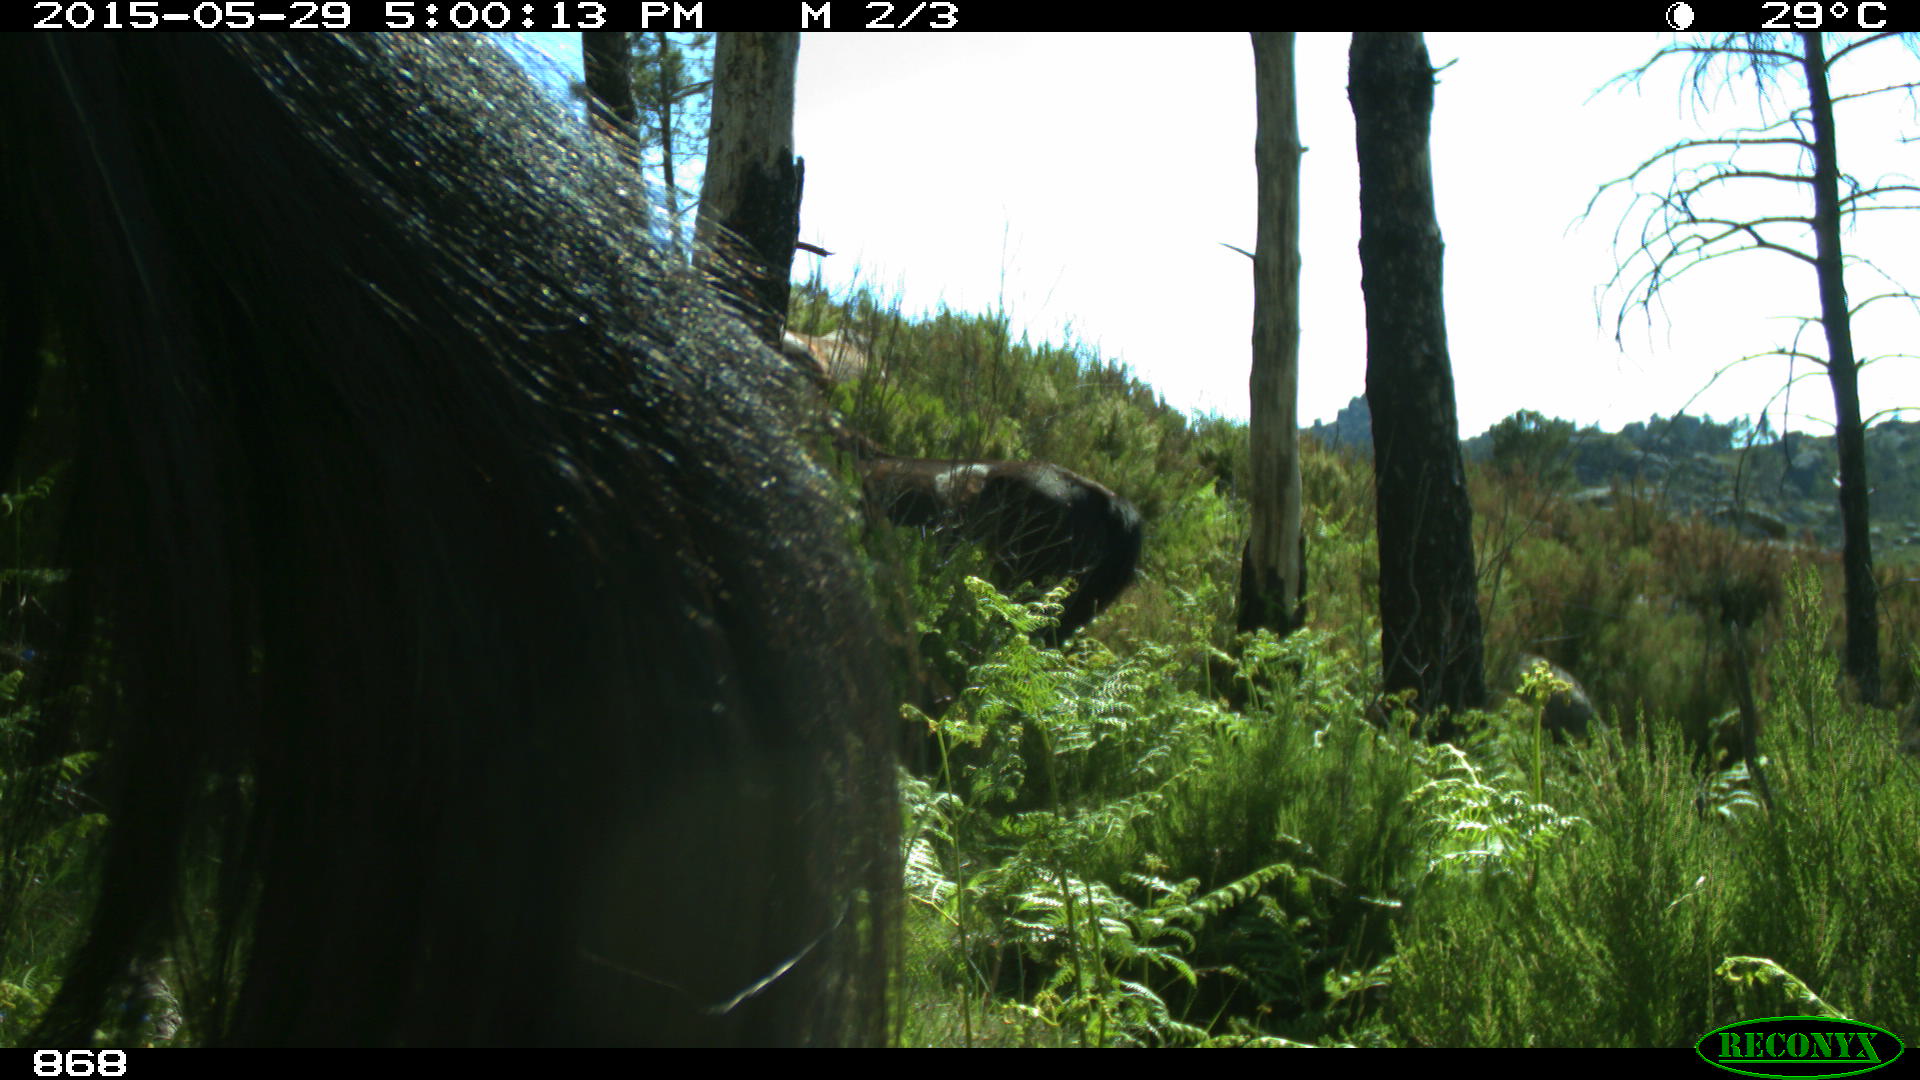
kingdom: Animalia
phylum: Chordata
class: Mammalia
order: Perissodactyla
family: Equidae
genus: Equus
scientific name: Equus caballus
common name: Horse
